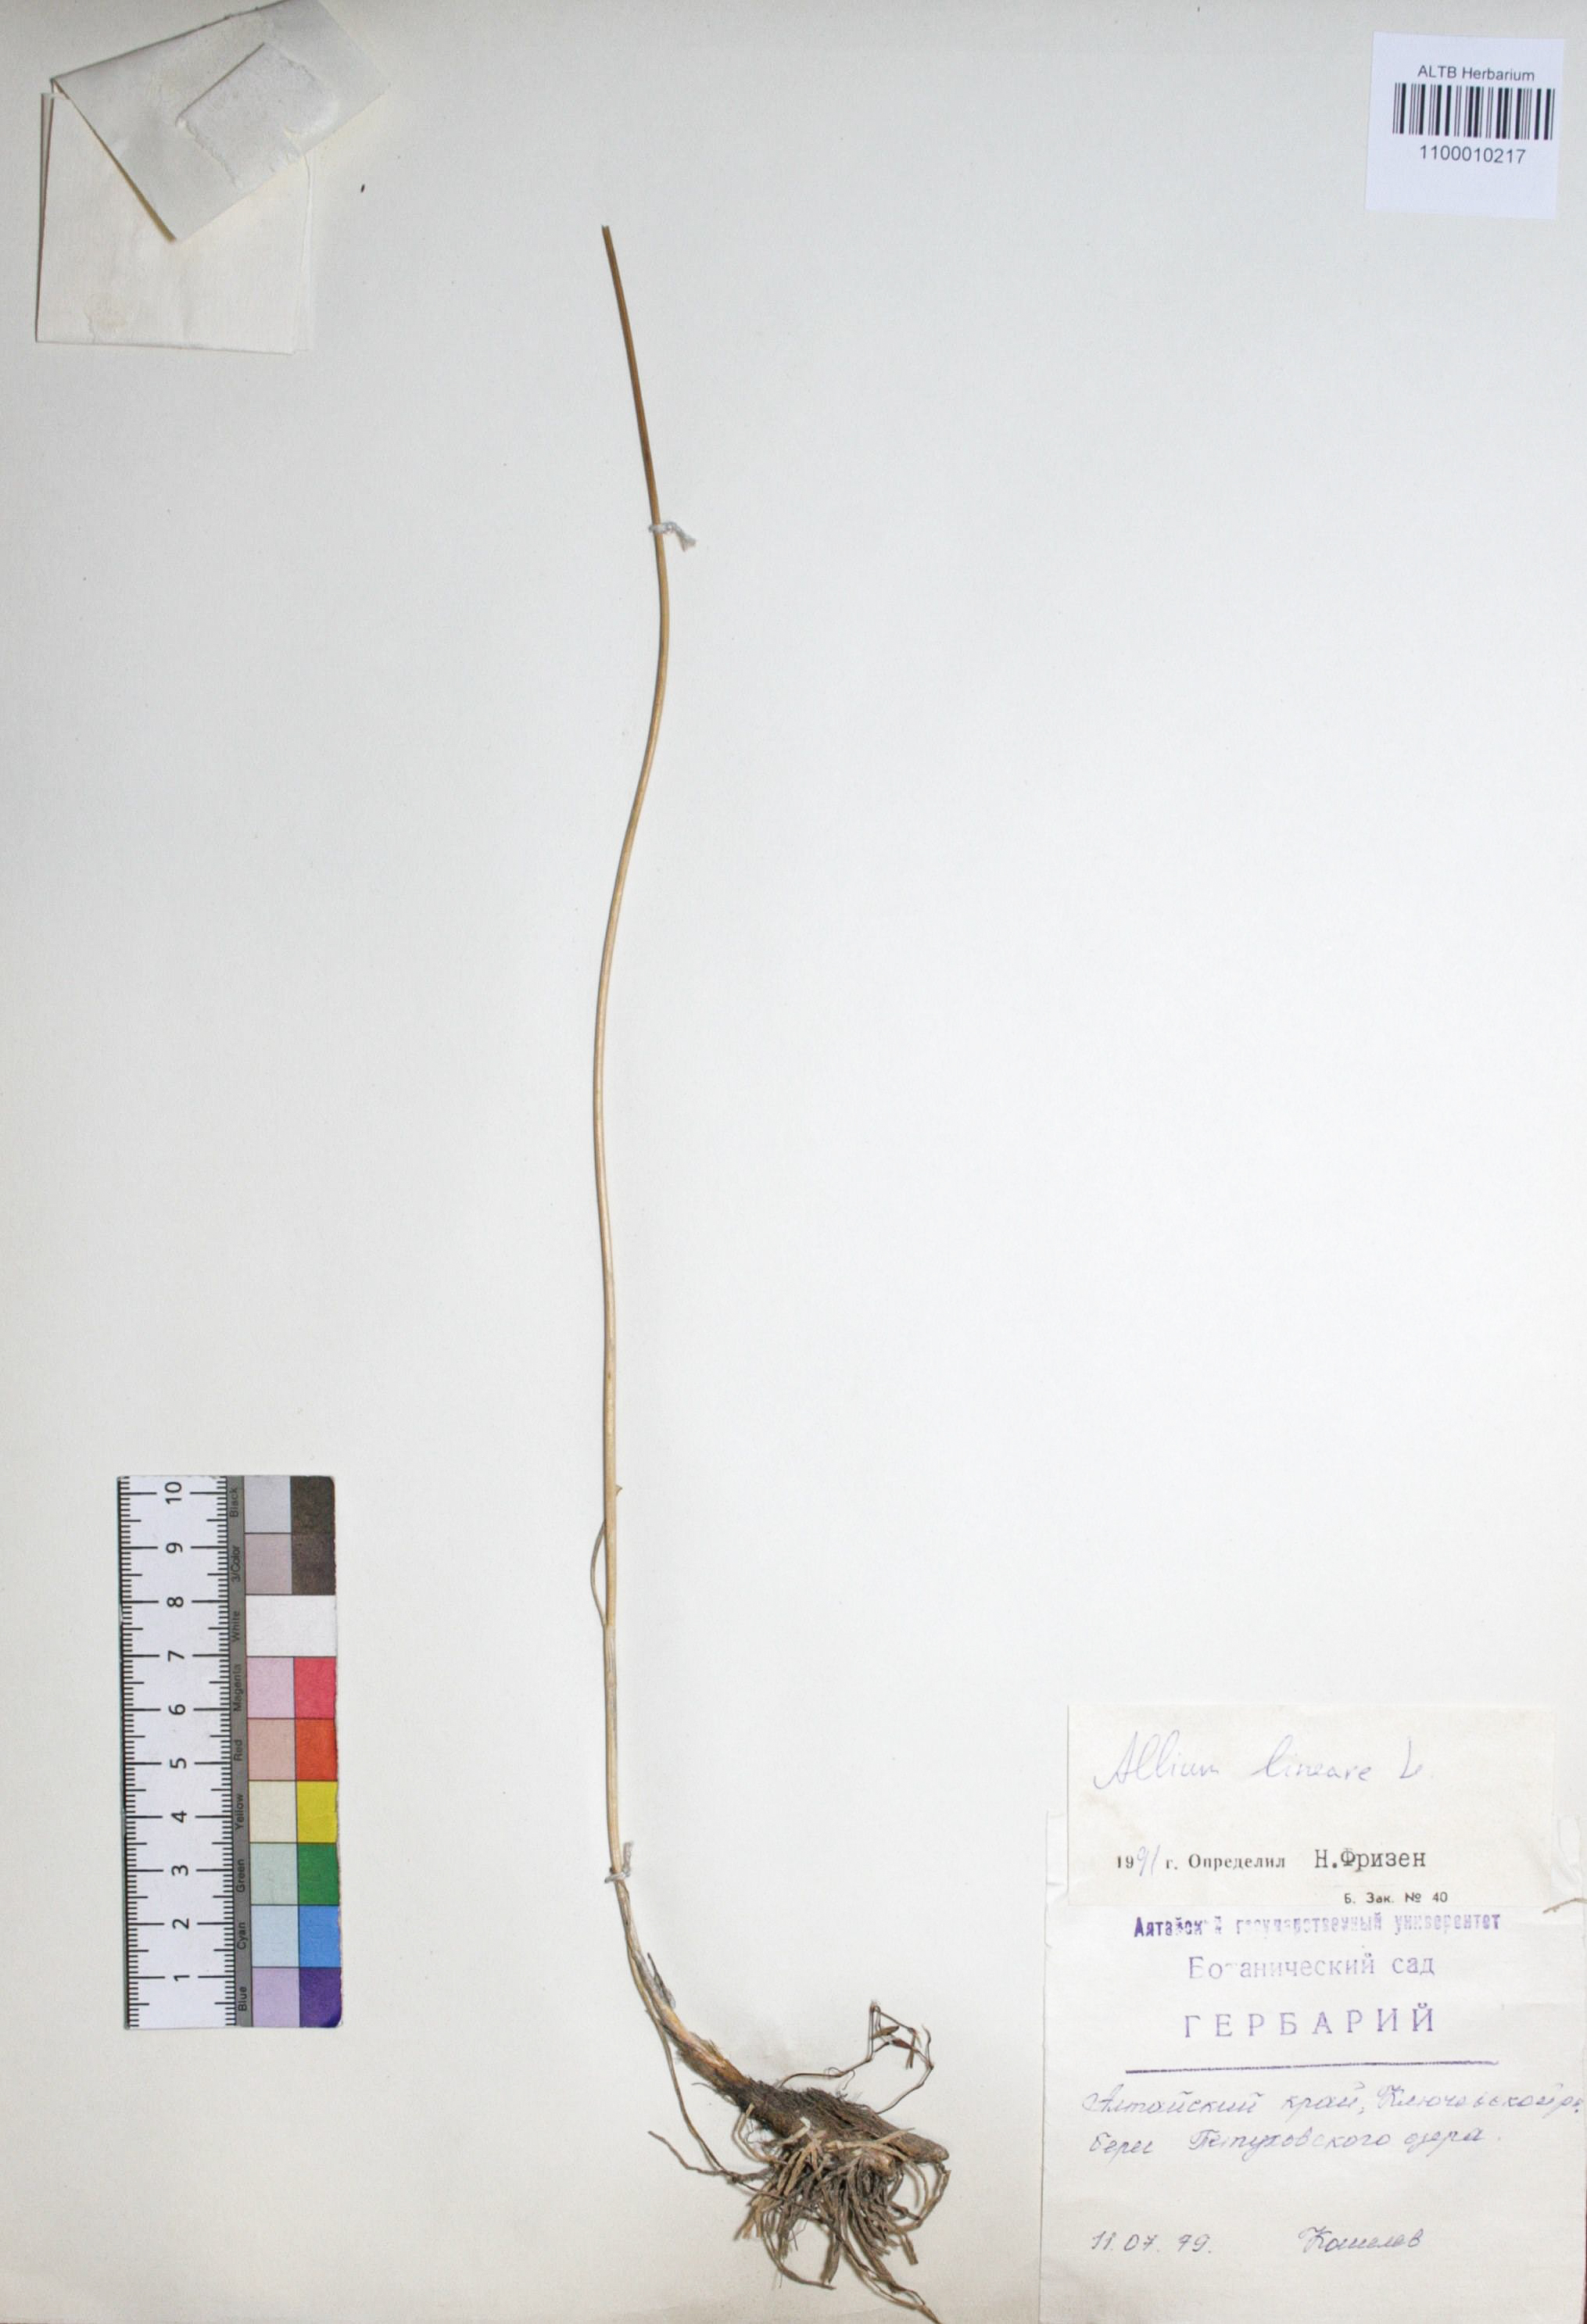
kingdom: Plantae
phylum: Tracheophyta
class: Liliopsida
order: Asparagales
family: Amaryllidaceae
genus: Allium
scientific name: Allium lineare
